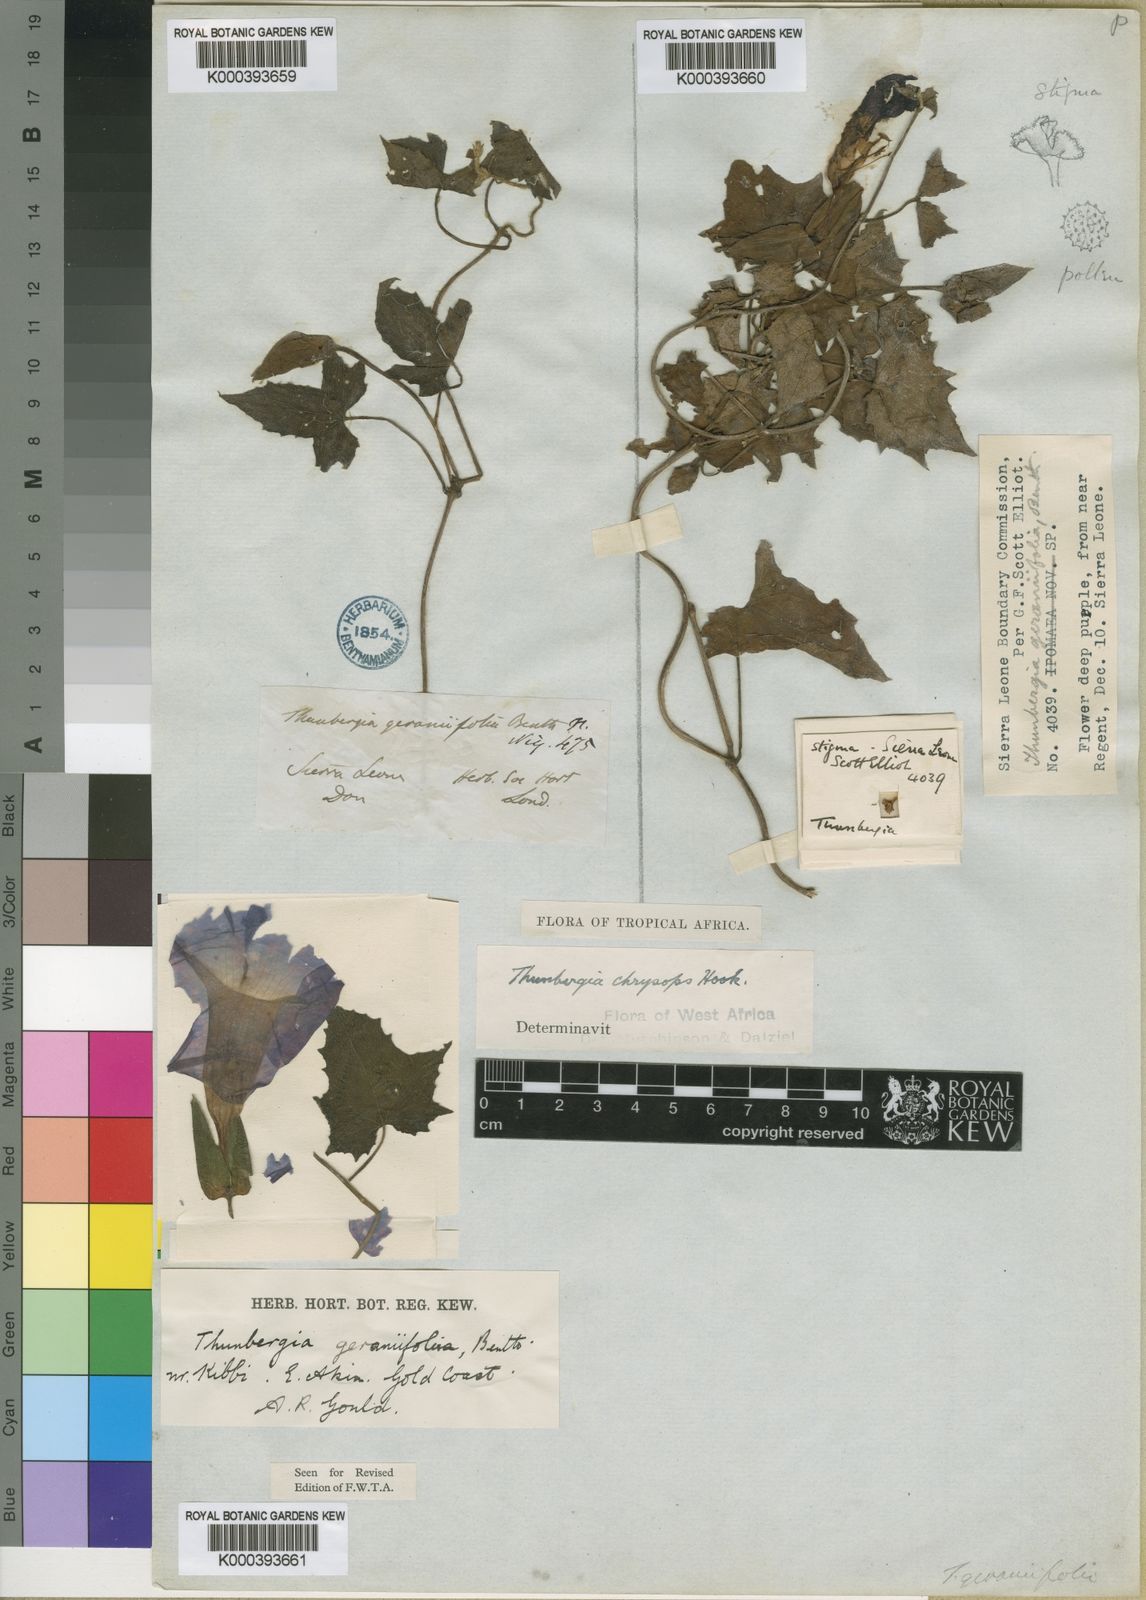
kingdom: Plantae
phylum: Tracheophyta
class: Magnoliopsida
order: Lamiales
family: Acanthaceae
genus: Thunbergia
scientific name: Thunbergia chrysops
